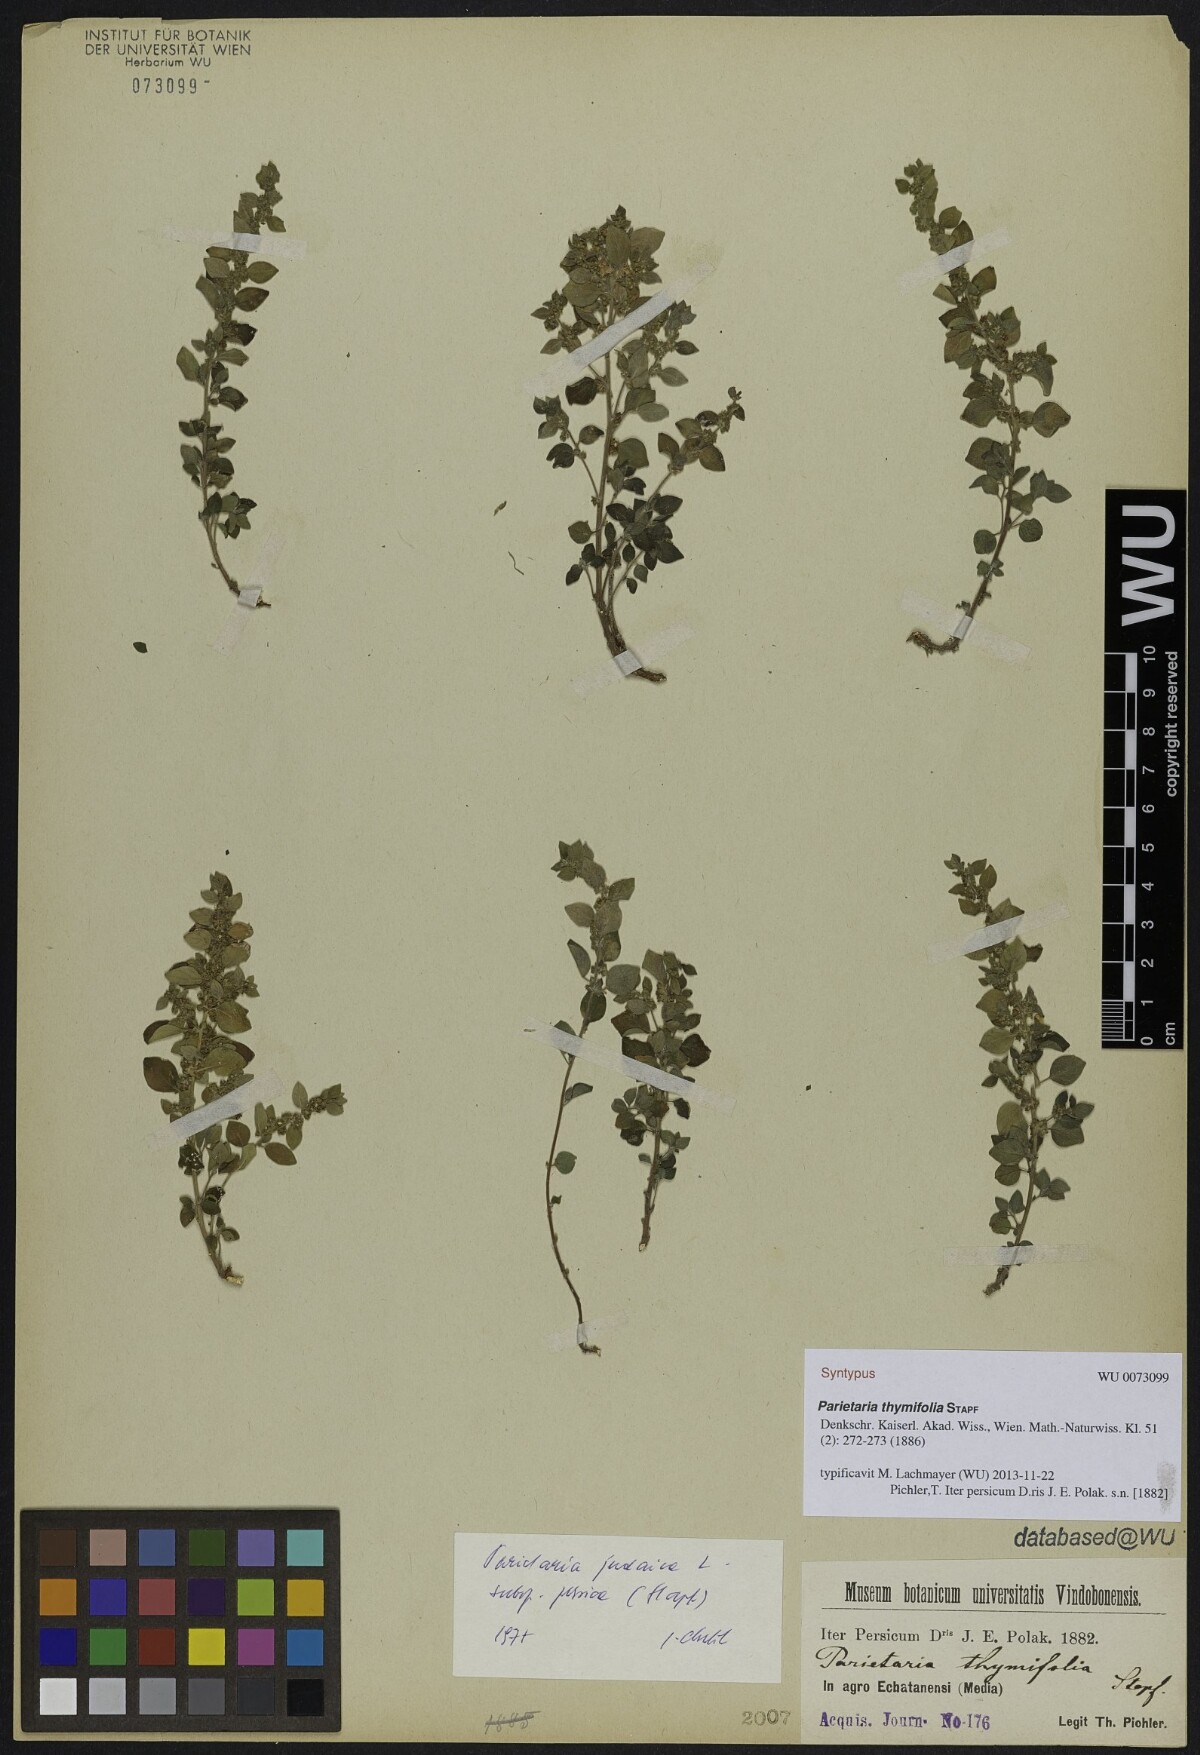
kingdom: Plantae
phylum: Tracheophyta
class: Magnoliopsida
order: Rosales
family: Urticaceae
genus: Parietaria
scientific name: Parietaria judaica
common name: Pellitory-of-the-wall
